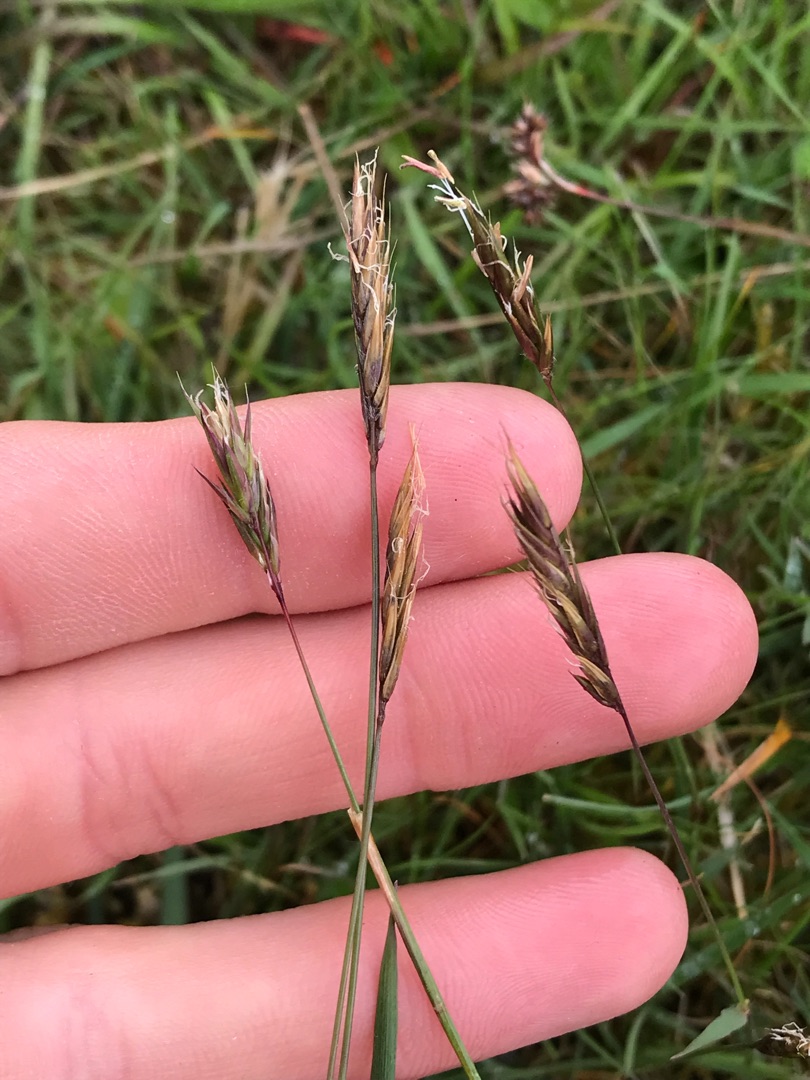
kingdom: Plantae
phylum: Tracheophyta
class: Liliopsida
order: Poales
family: Poaceae
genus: Anthoxanthum
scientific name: Anthoxanthum odoratum
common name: Vellugtende gulaks
